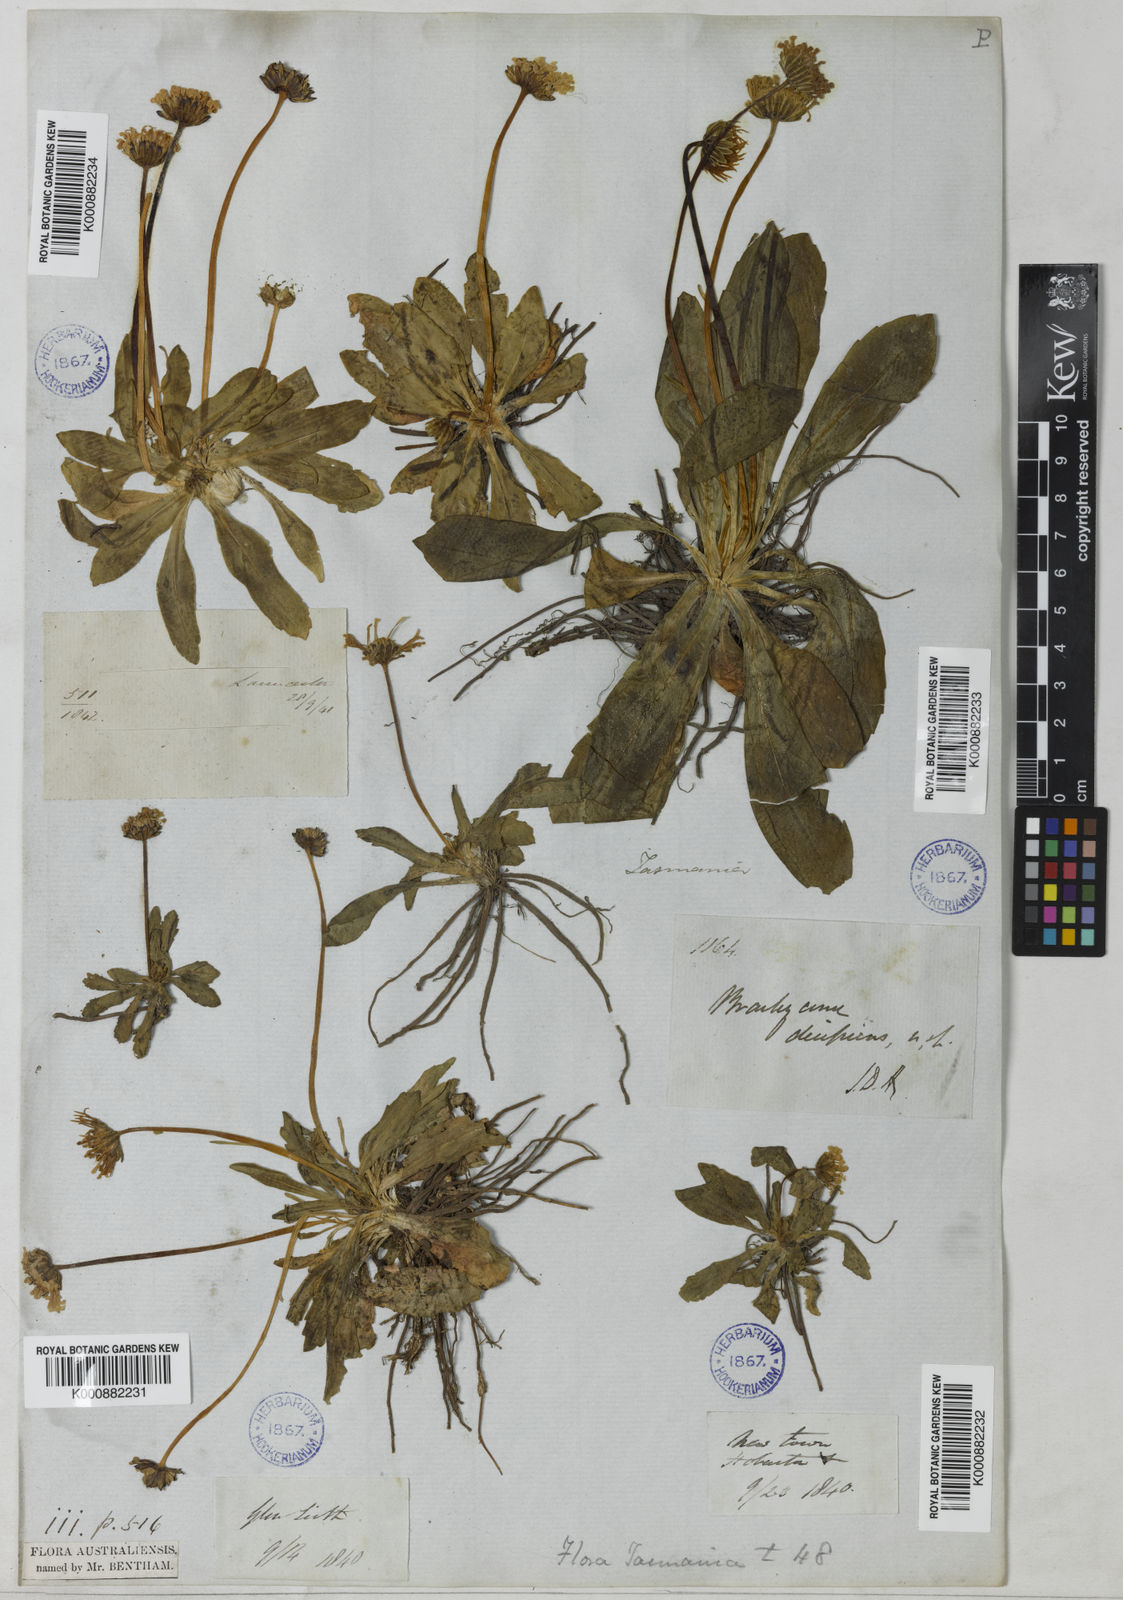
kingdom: Plantae
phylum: Tracheophyta
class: Magnoliopsida
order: Asterales
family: Asteraceae
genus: Brachyscome
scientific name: Brachyscome decipiens
